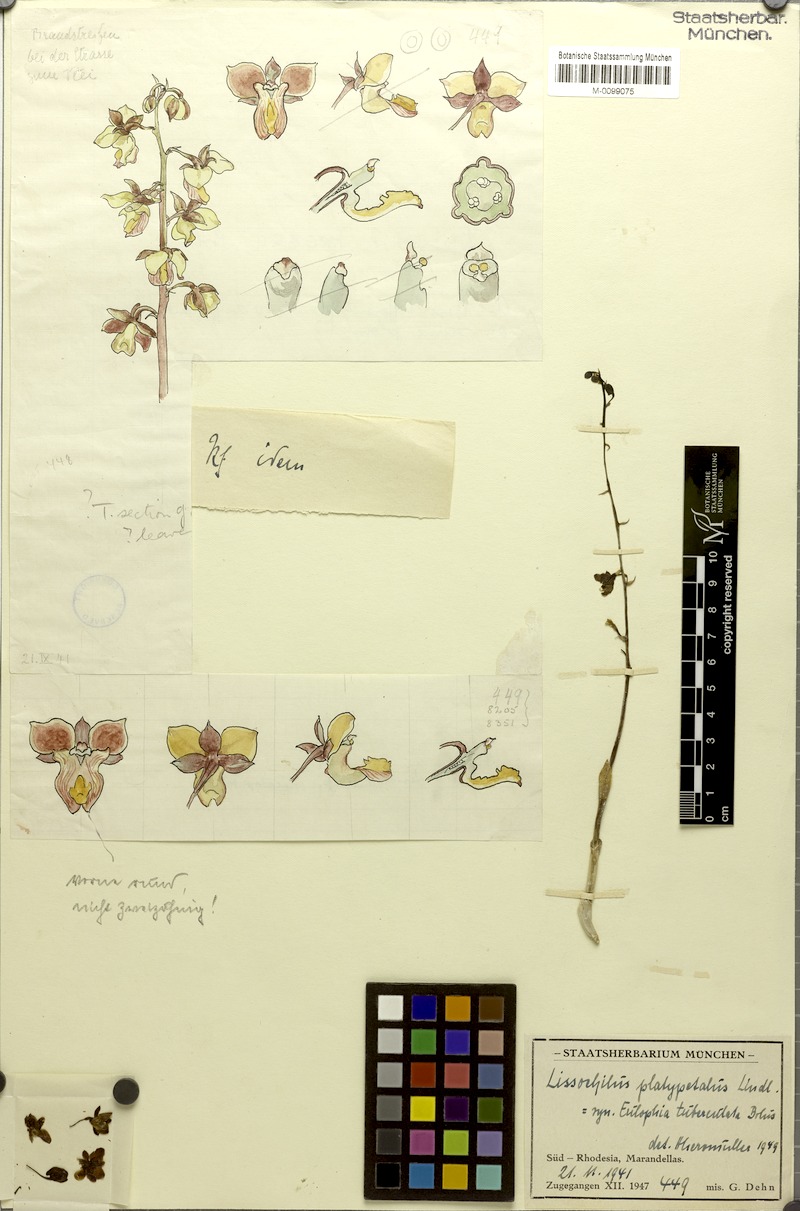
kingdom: Plantae
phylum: Tracheophyta
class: Liliopsida
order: Asparagales
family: Orchidaceae
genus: Eulophia
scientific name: Eulophia platypetala
